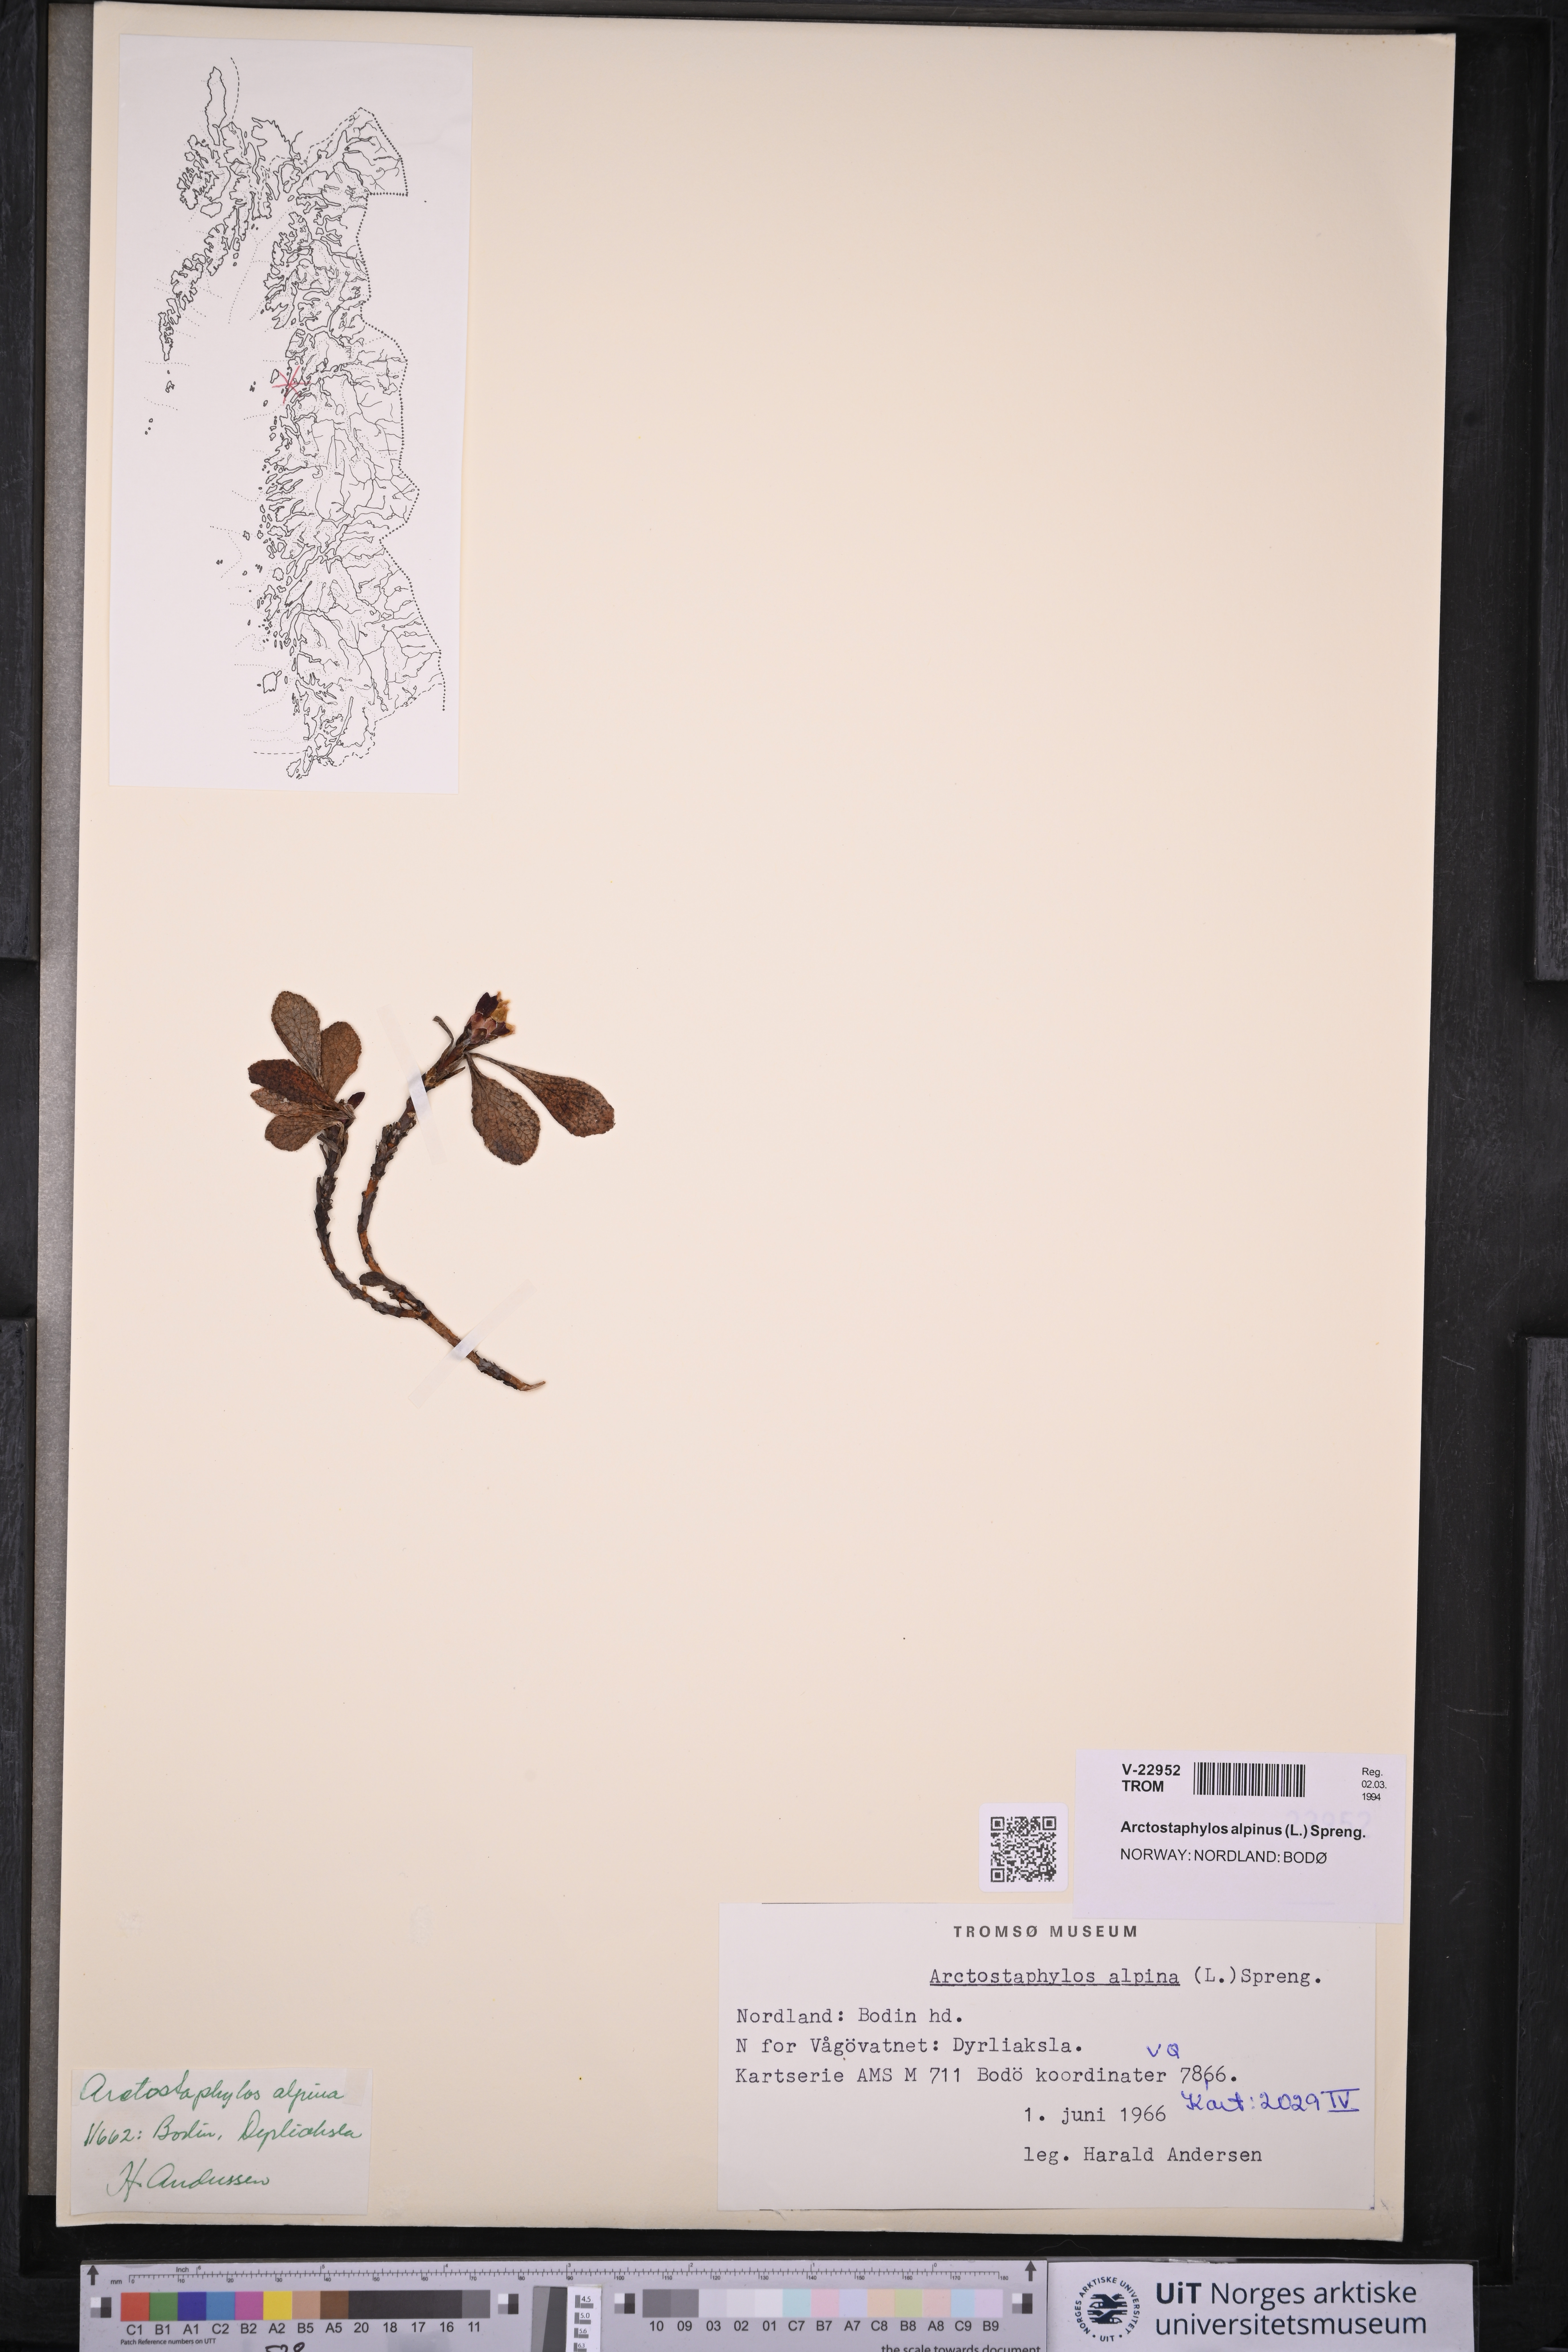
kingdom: Plantae
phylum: Tracheophyta
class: Magnoliopsida
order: Ericales
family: Ericaceae
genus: Arctostaphylos
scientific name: Arctostaphylos alpinus
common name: Alpine bearberry
